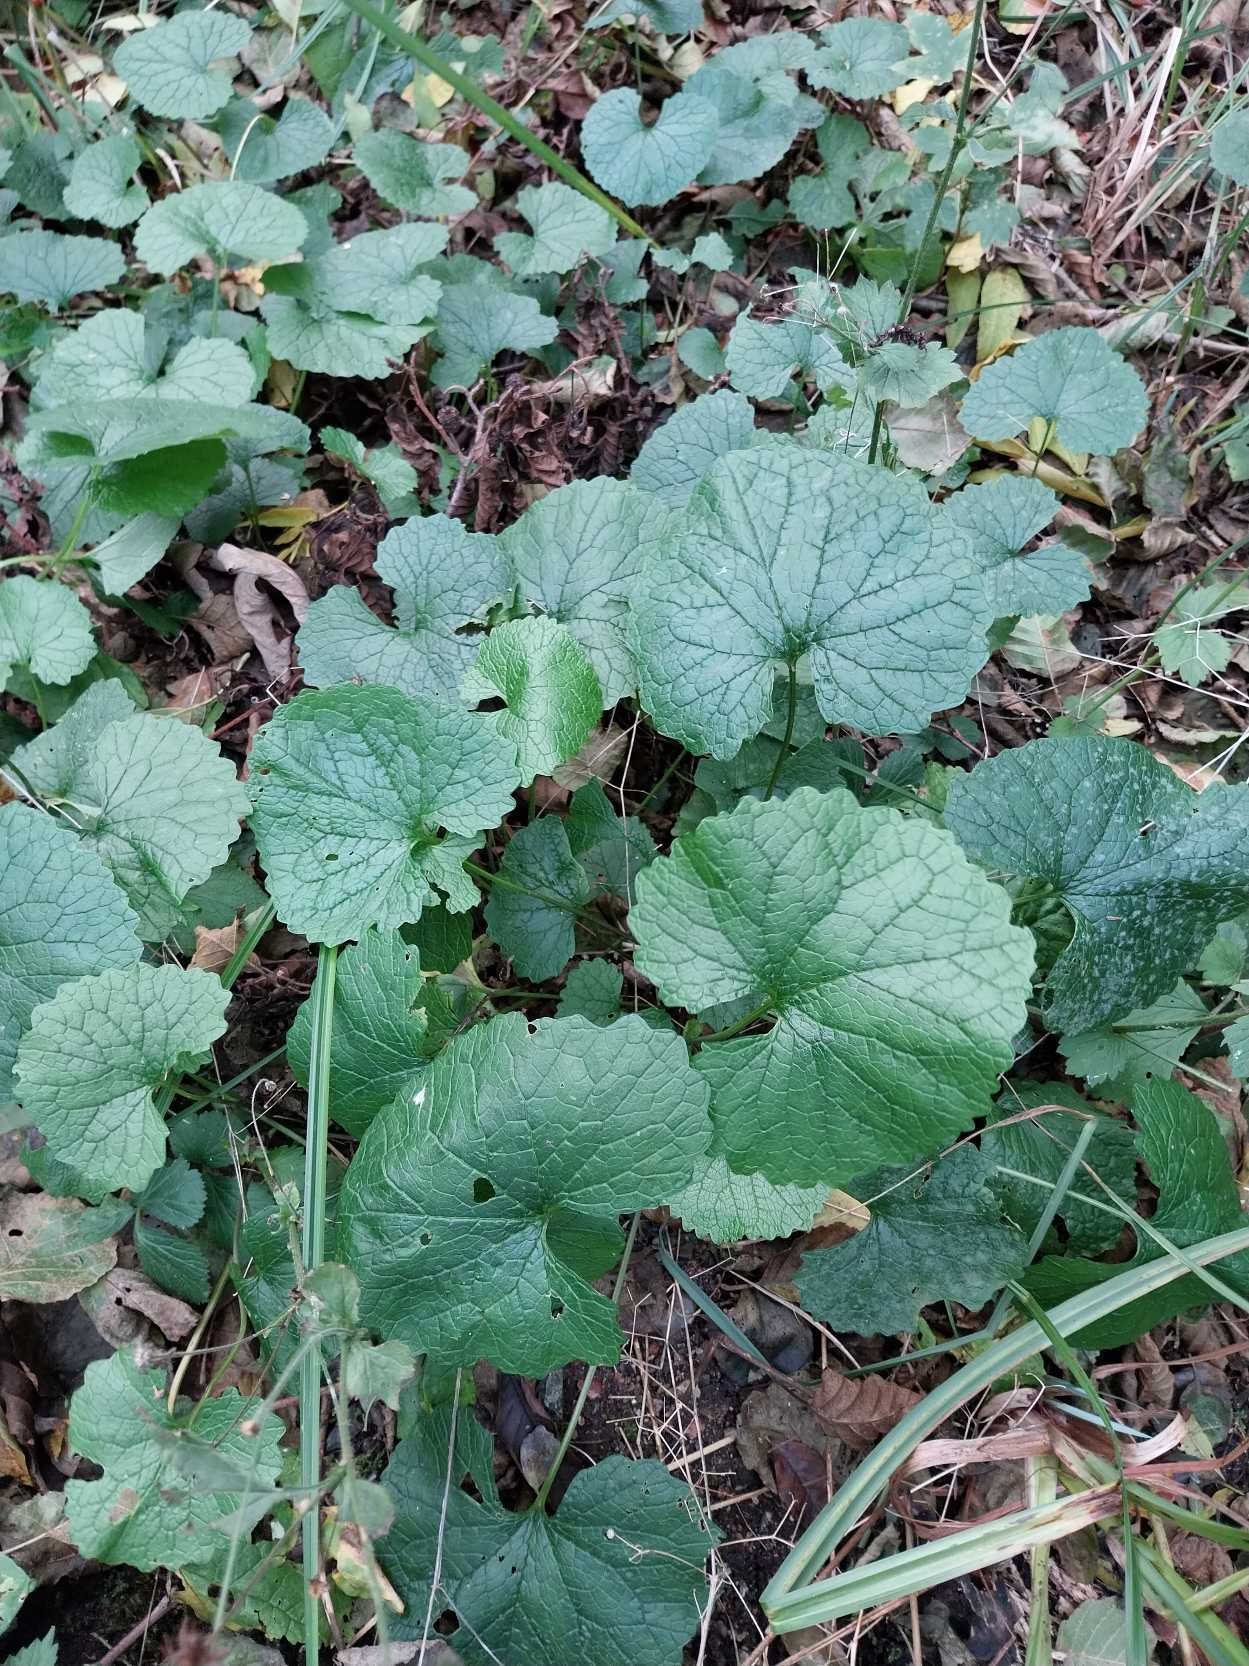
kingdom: Plantae
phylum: Tracheophyta
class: Magnoliopsida
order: Brassicales
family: Brassicaceae
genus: Alliaria
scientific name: Alliaria petiolata
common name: Løgkarse
